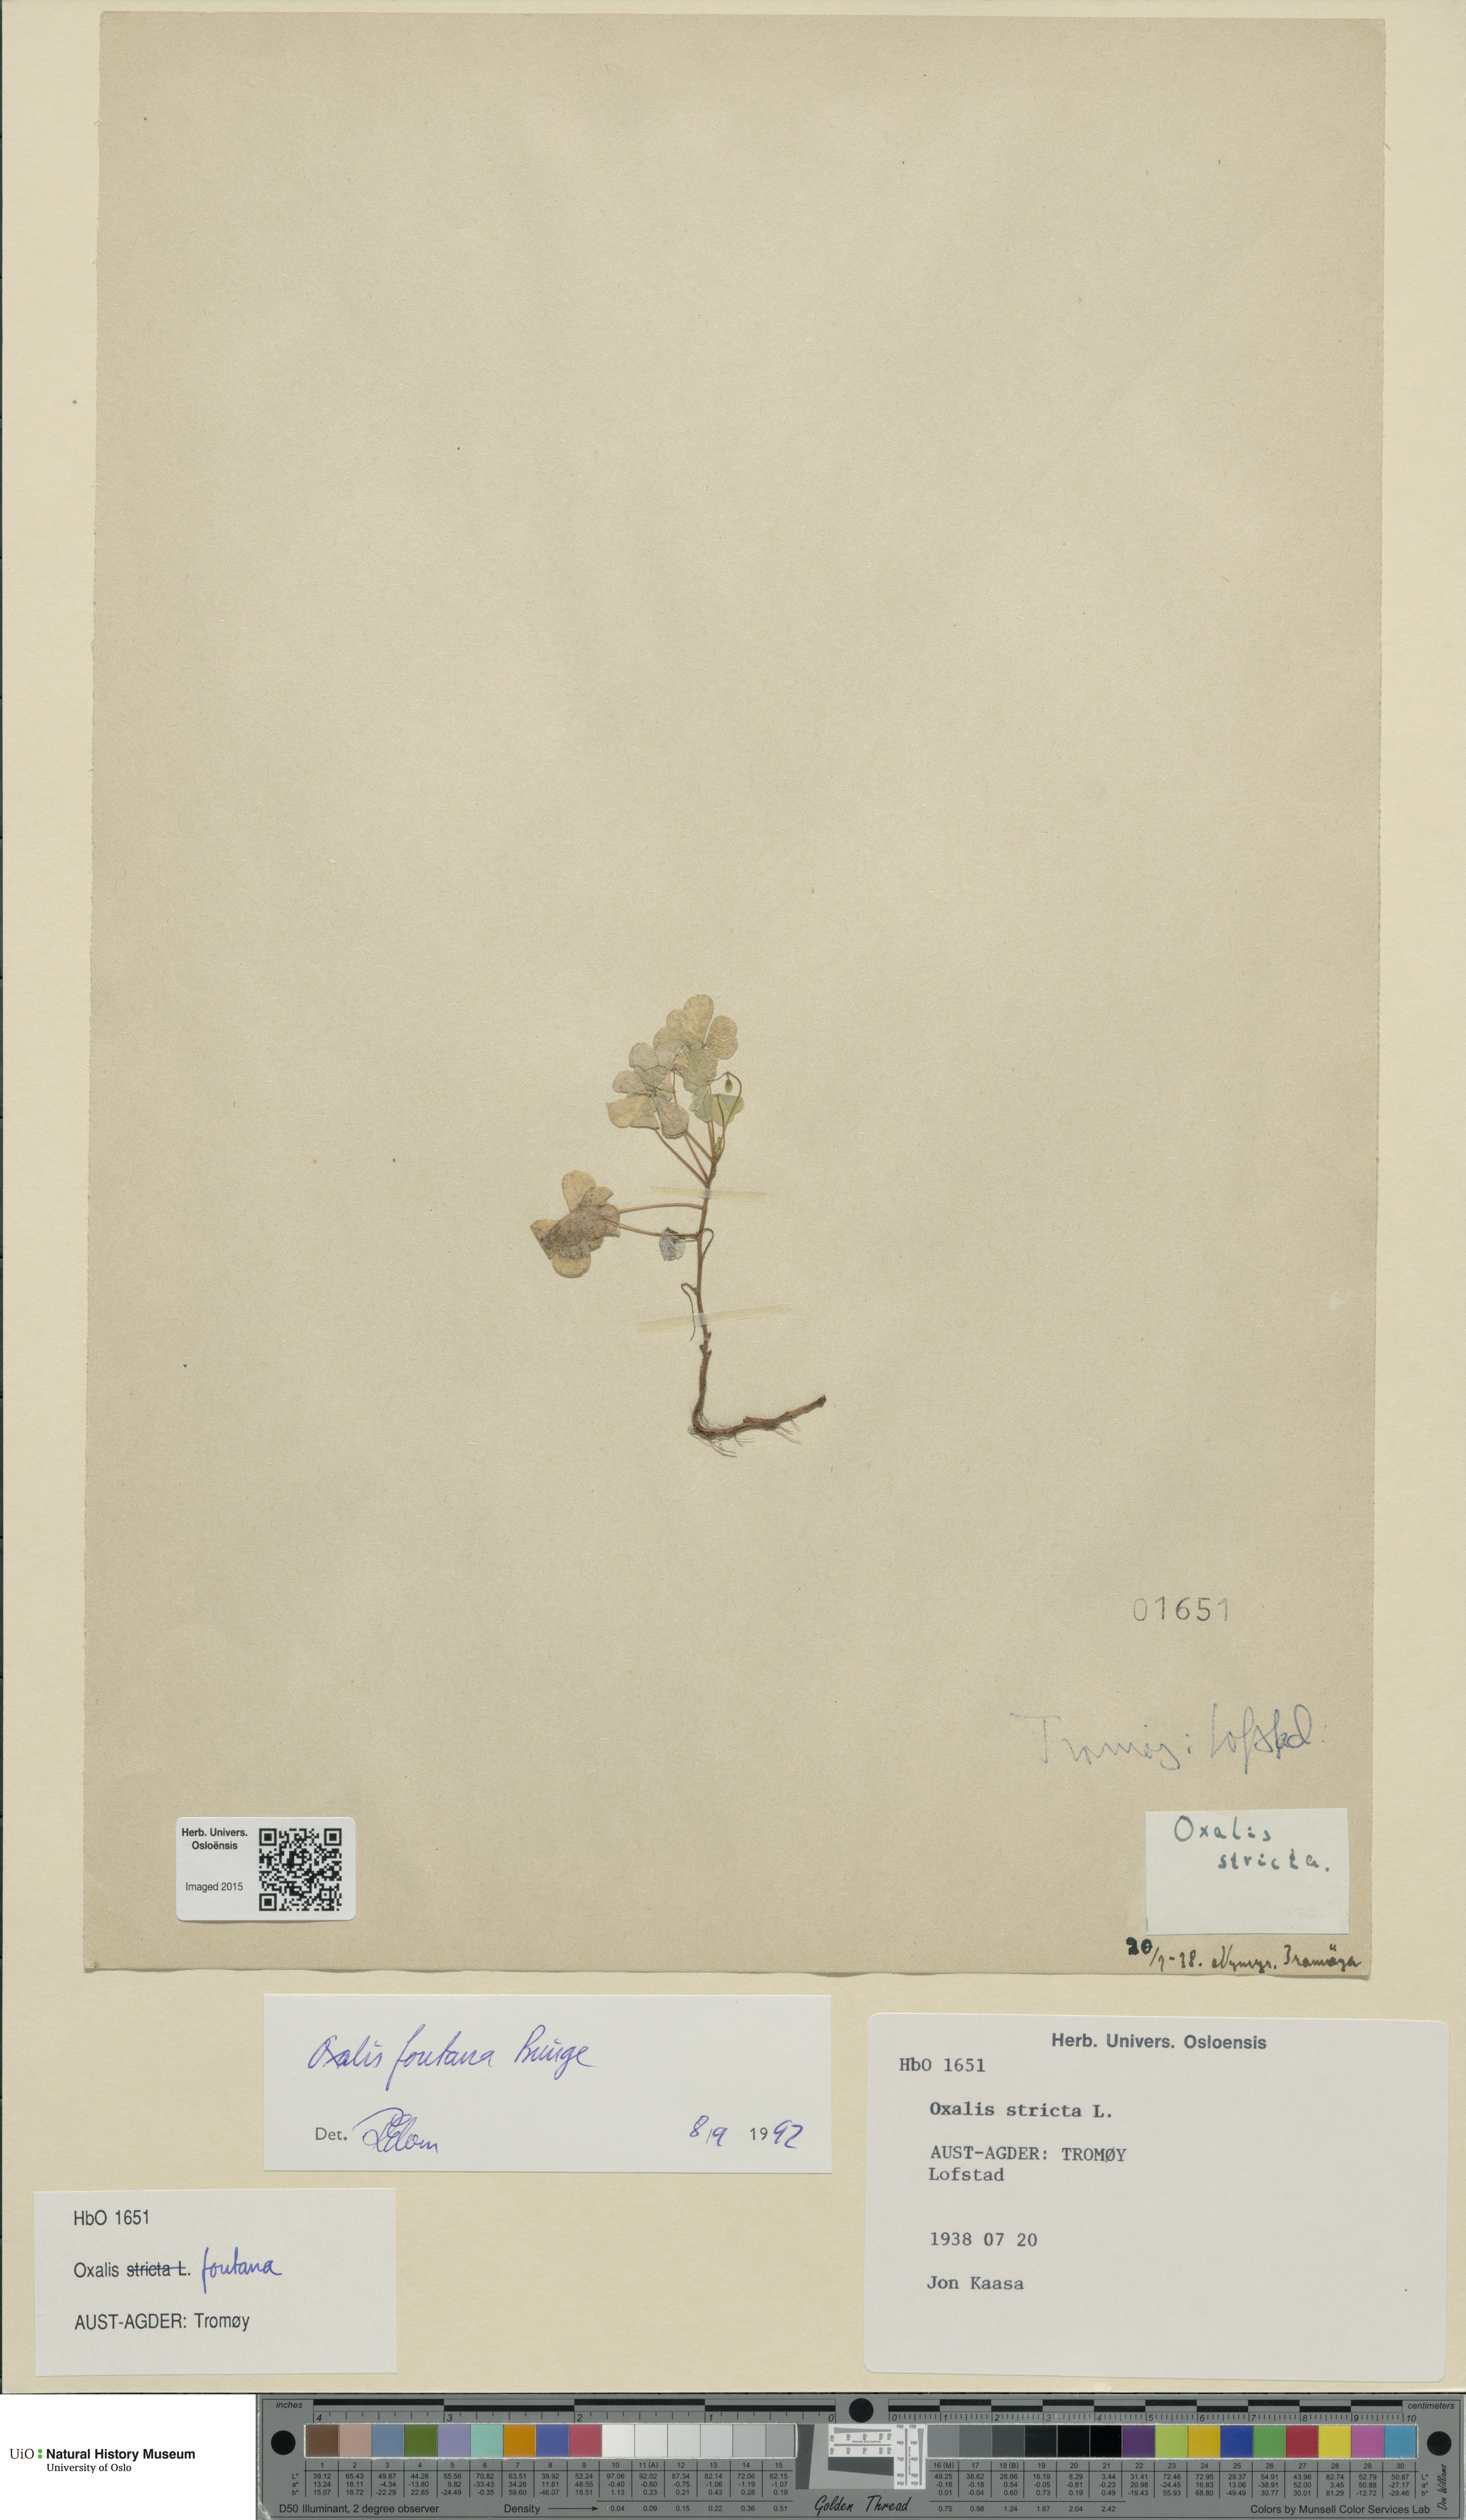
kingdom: Plantae
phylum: Tracheophyta
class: Magnoliopsida
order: Oxalidales
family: Oxalidaceae
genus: Oxalis
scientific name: Oxalis stricta
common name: Upright yellow-sorrel
